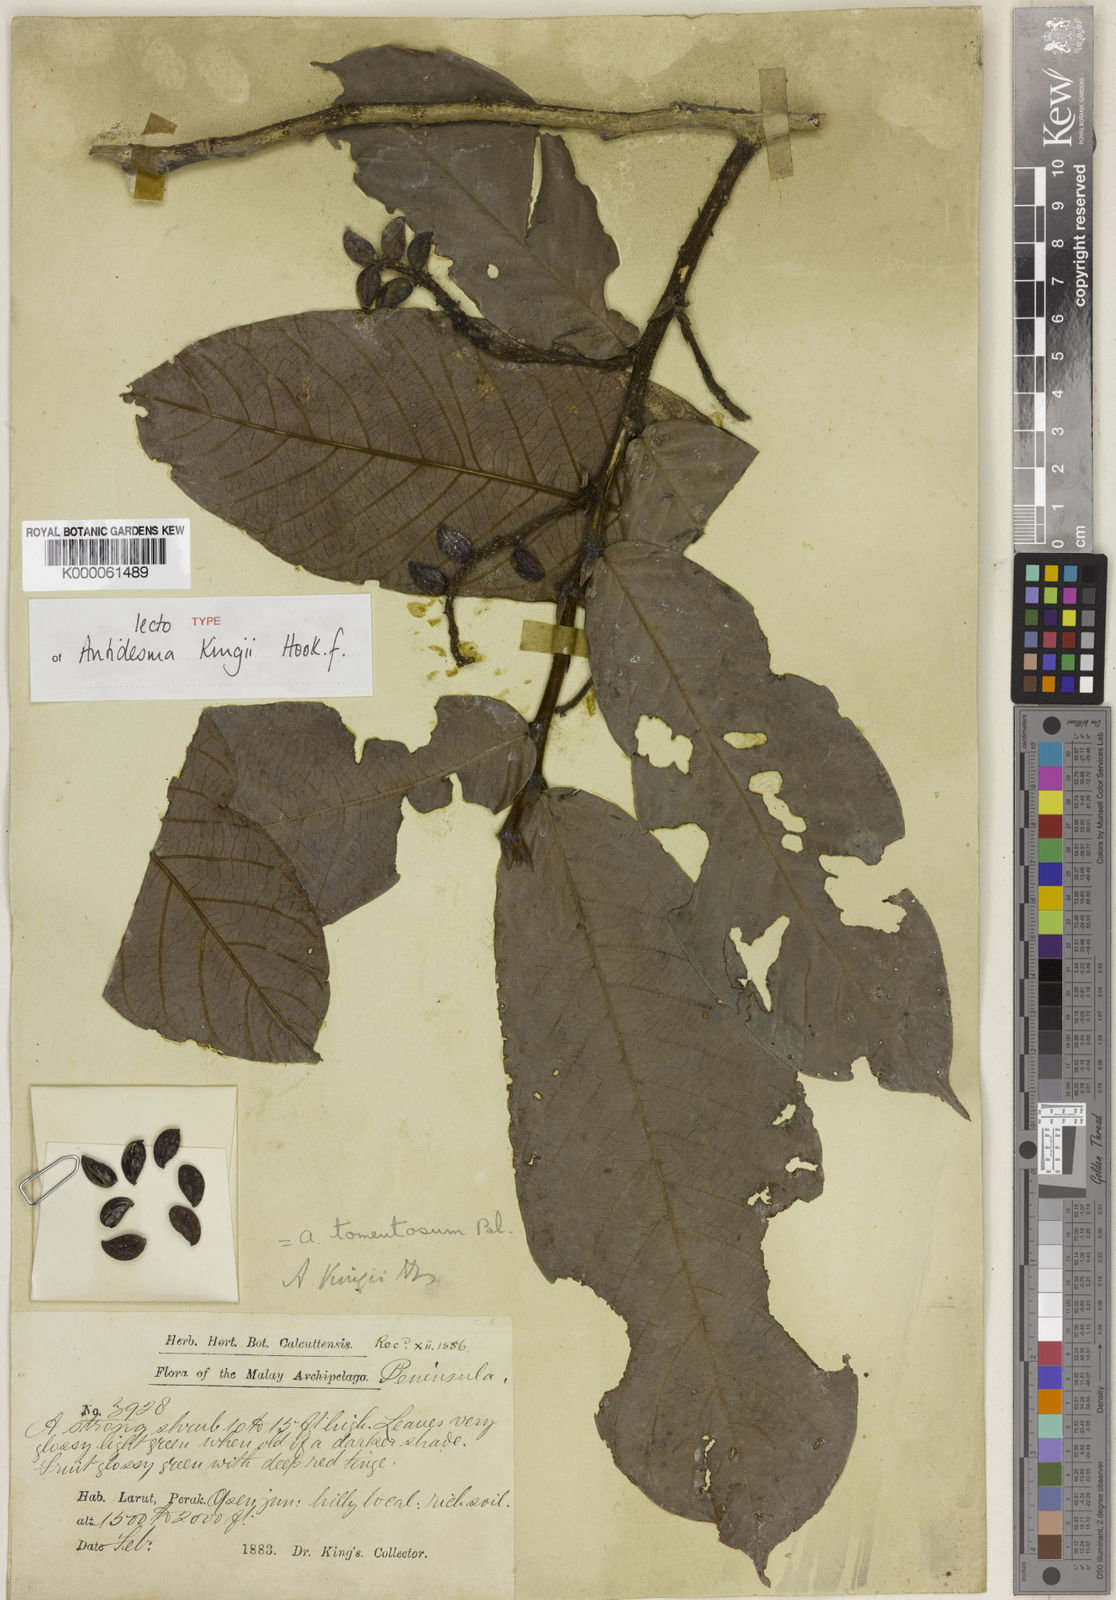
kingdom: Plantae
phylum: Tracheophyta
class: Magnoliopsida
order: Malpighiales
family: Phyllanthaceae
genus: Antidesma
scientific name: Antidesma tomentosum
